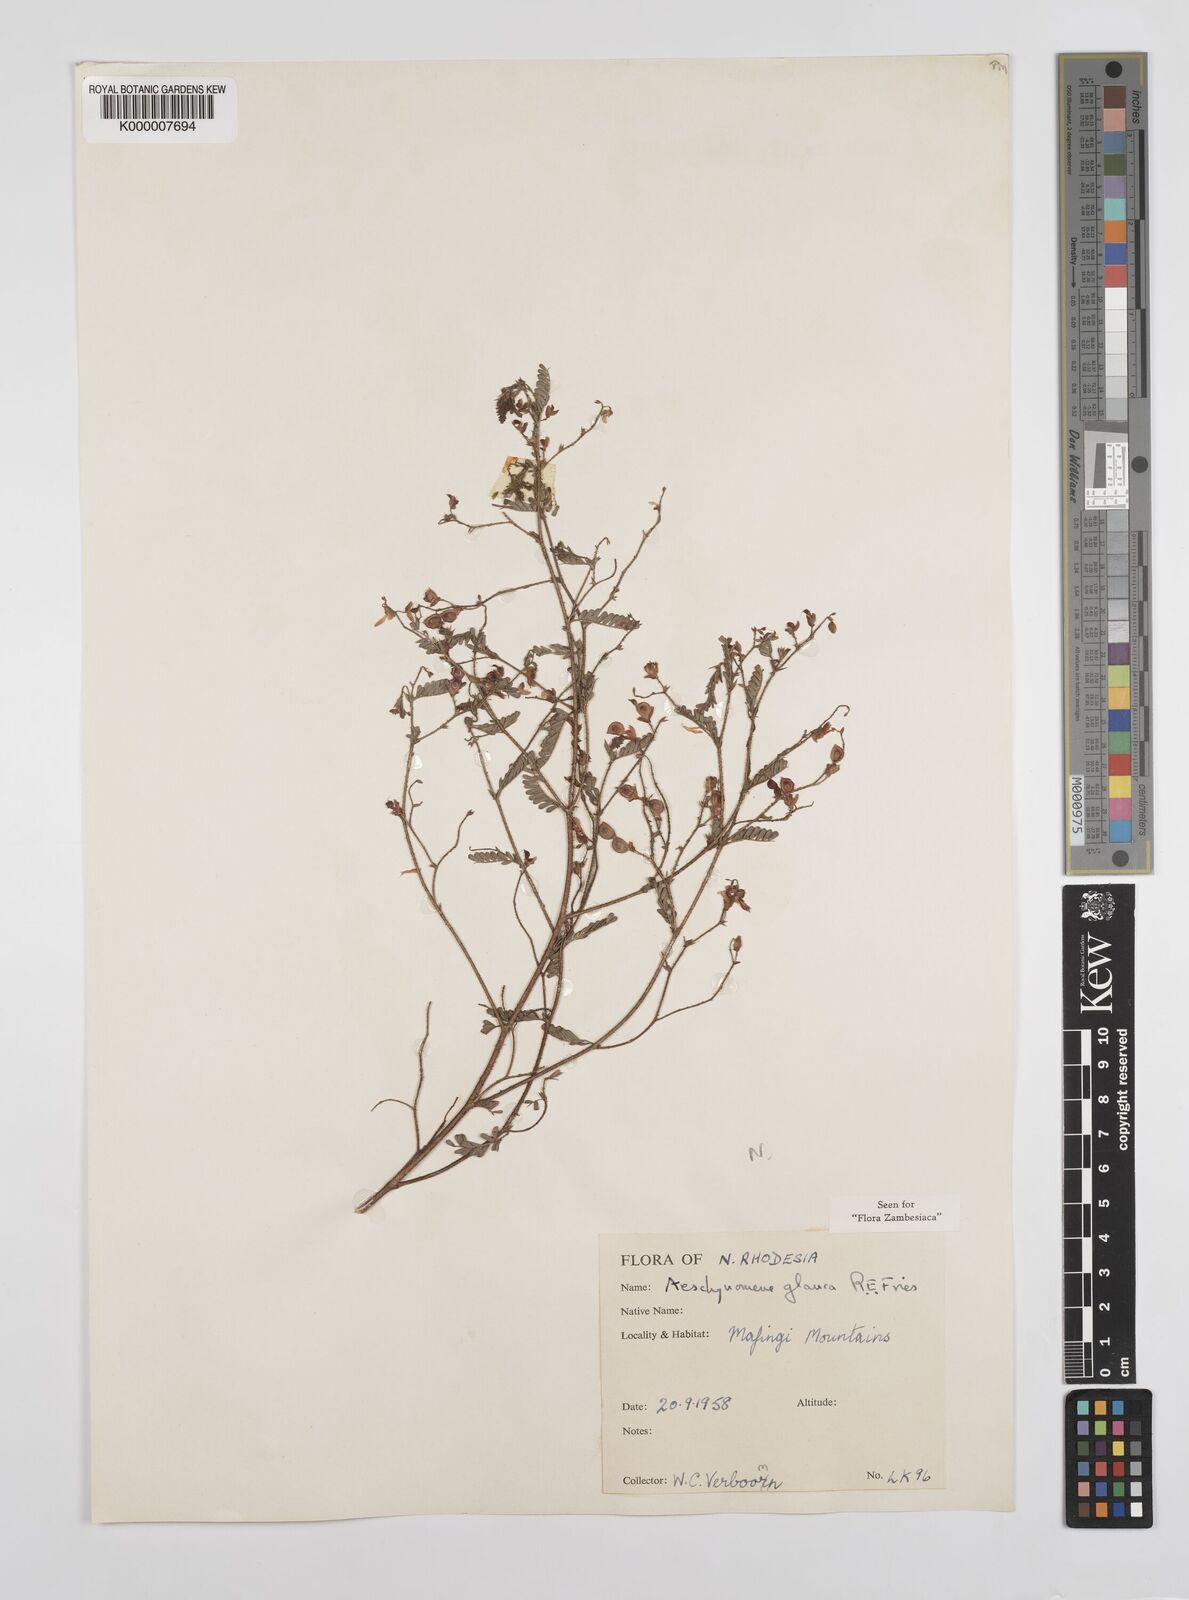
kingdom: Plantae
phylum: Tracheophyta
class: Magnoliopsida
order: Fabales
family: Fabaceae
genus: Aeschynomene
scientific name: Aeschynomene glauca
